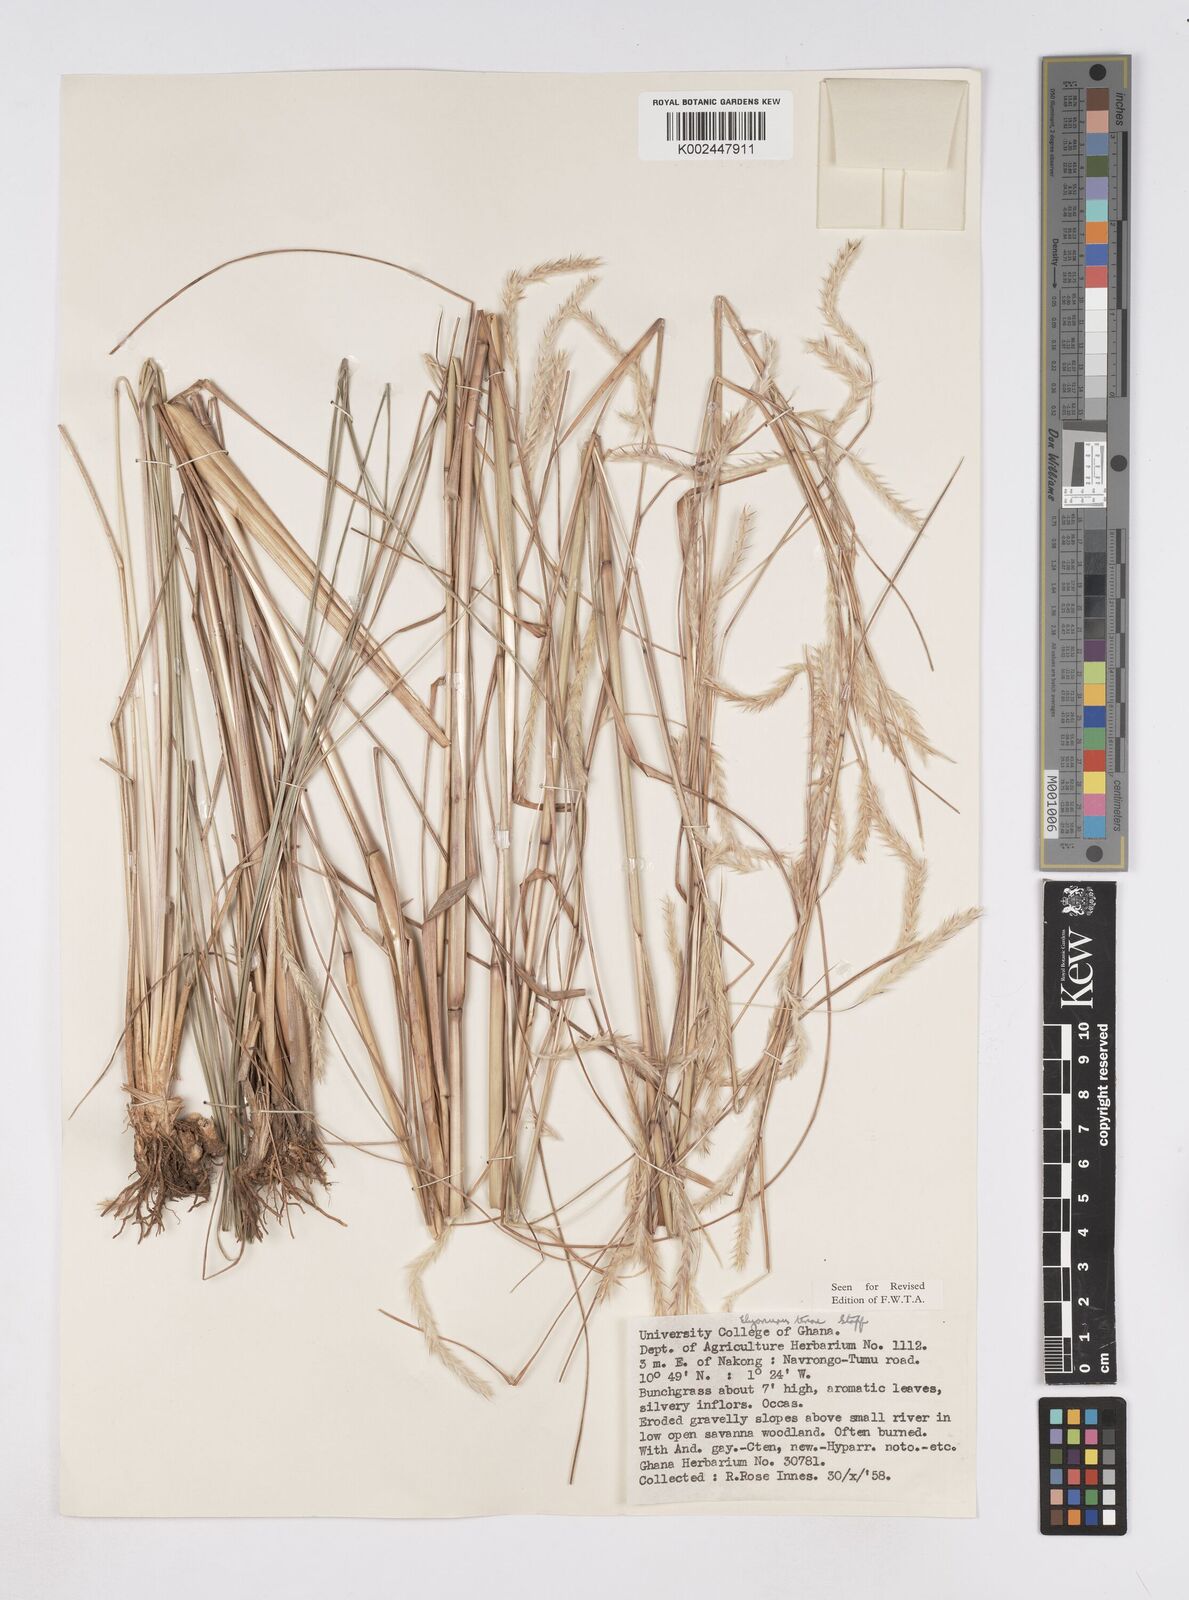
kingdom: Plantae
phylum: Tracheophyta
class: Liliopsida
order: Poales
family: Poaceae
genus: Elionurus
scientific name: Elionurus
